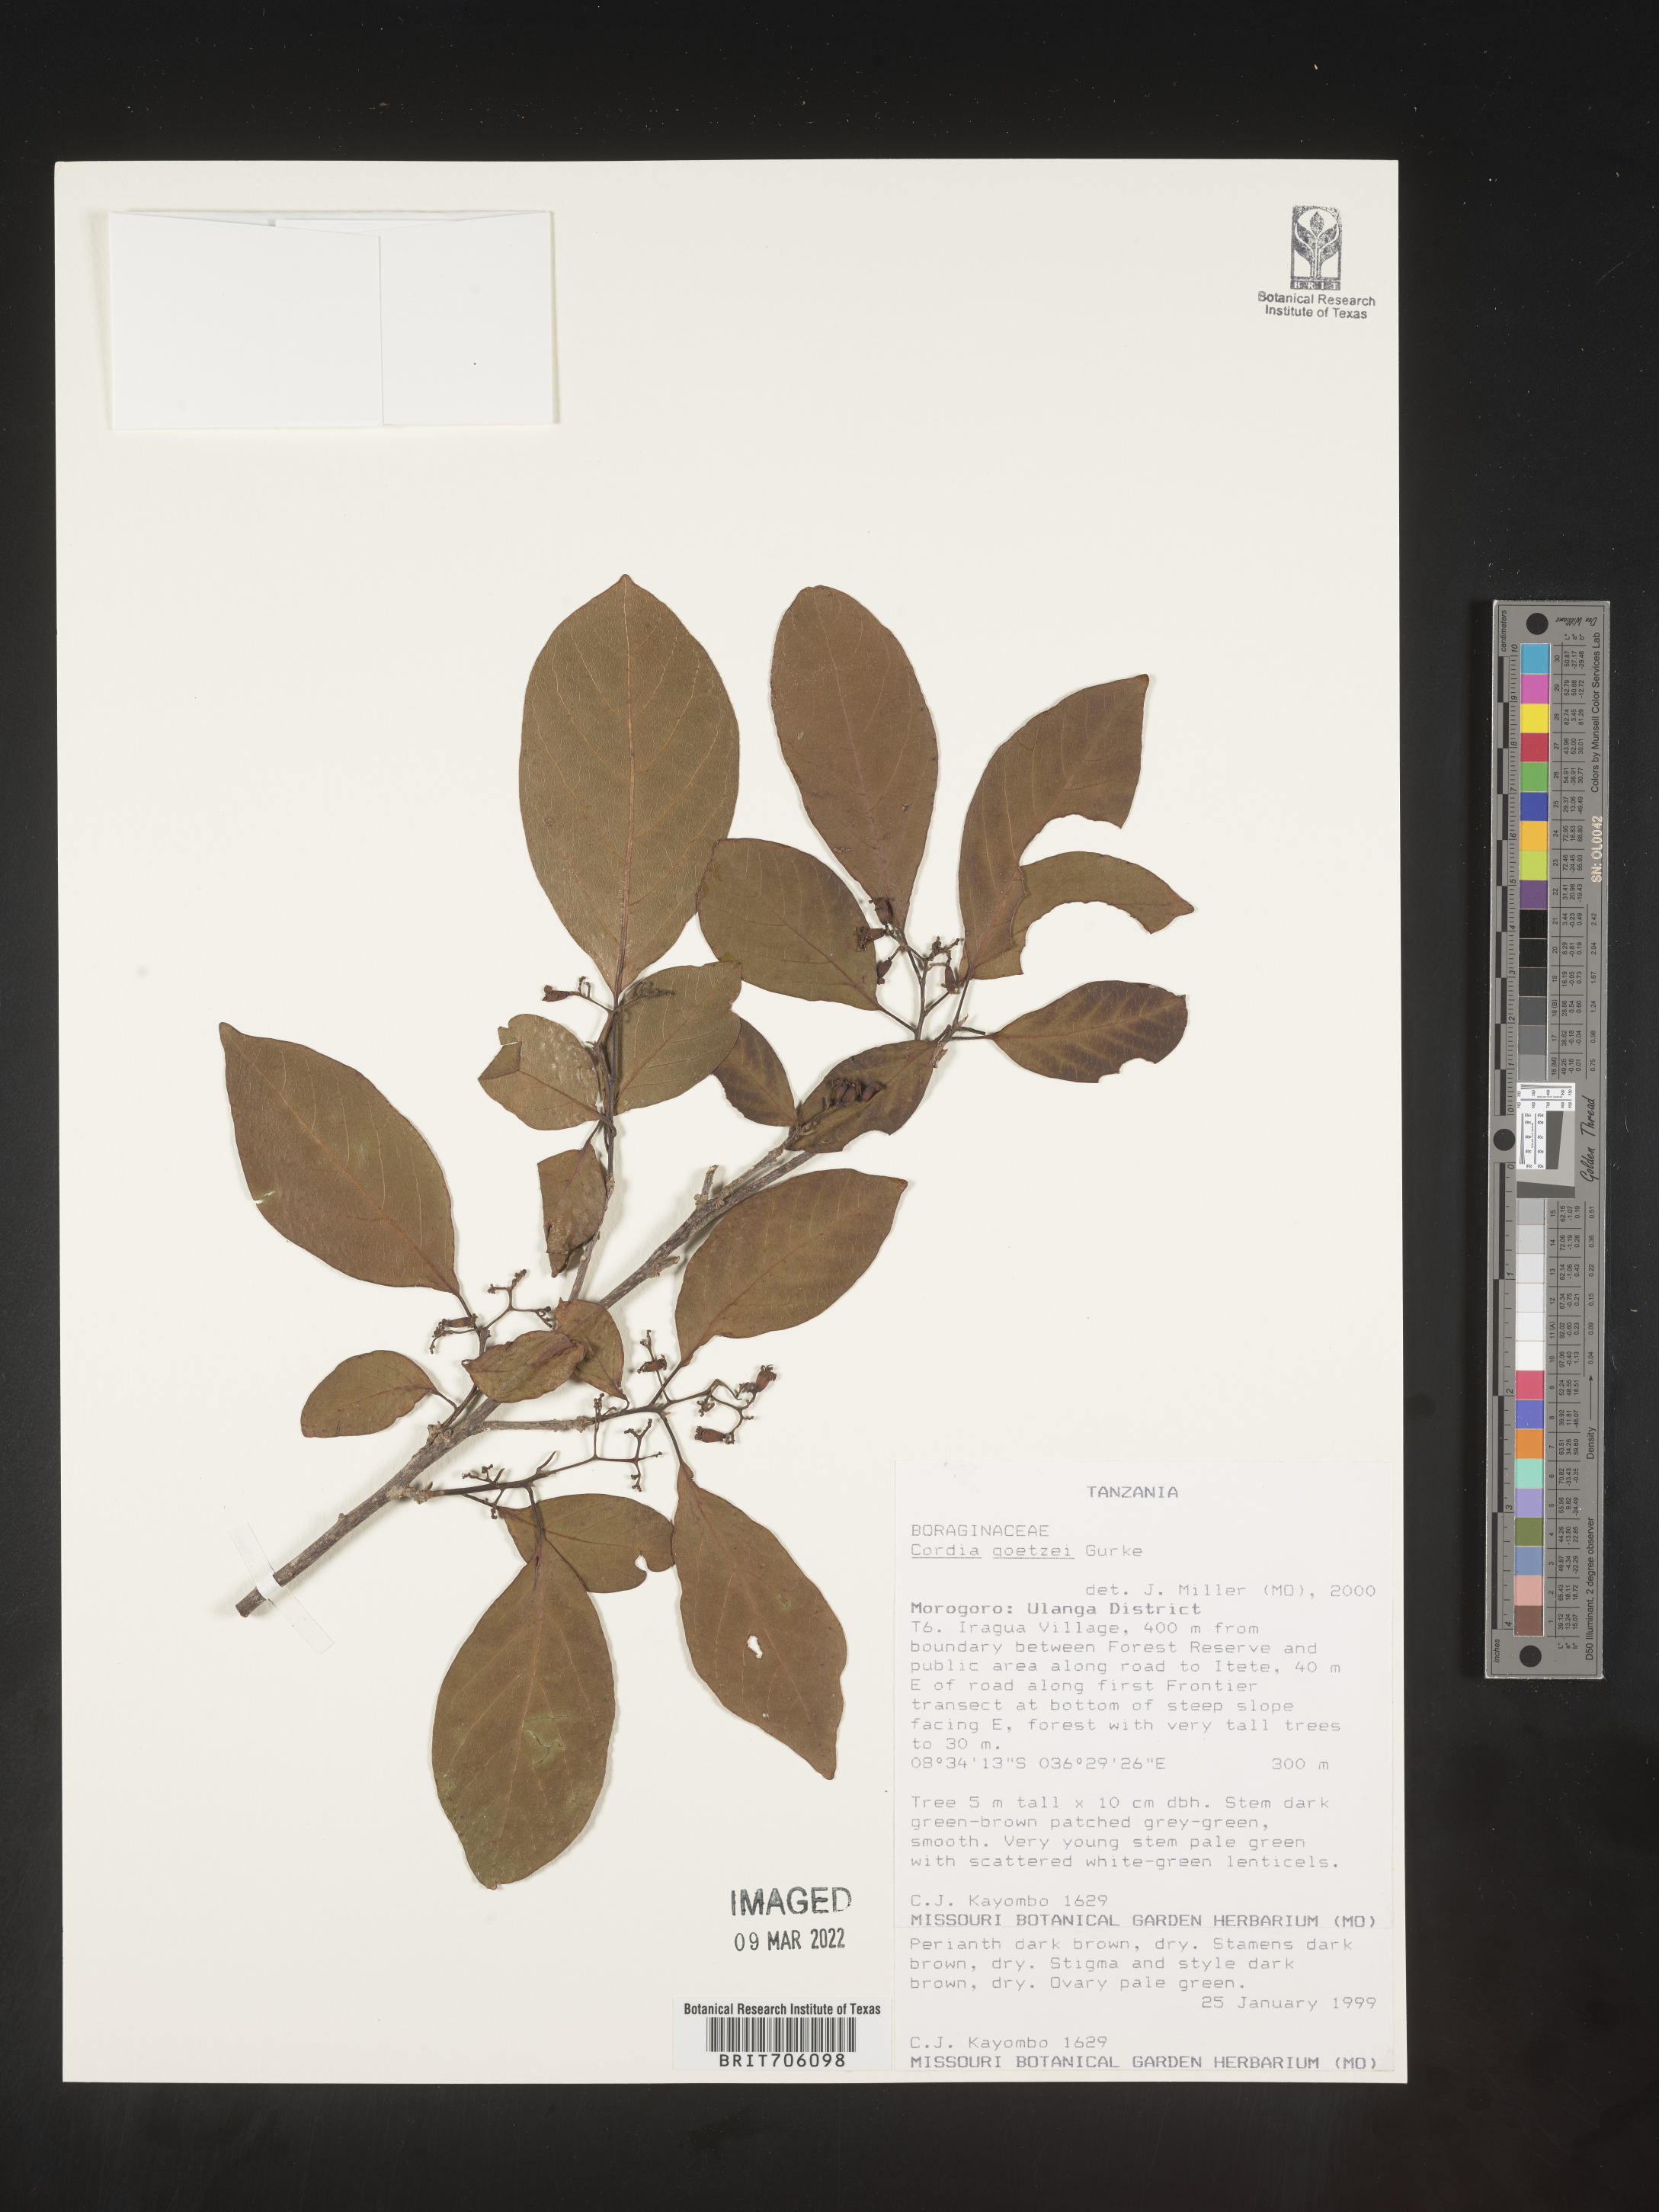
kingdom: Plantae
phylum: Tracheophyta
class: Magnoliopsida
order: Boraginales
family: Cordiaceae
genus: Cordia
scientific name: Cordia
